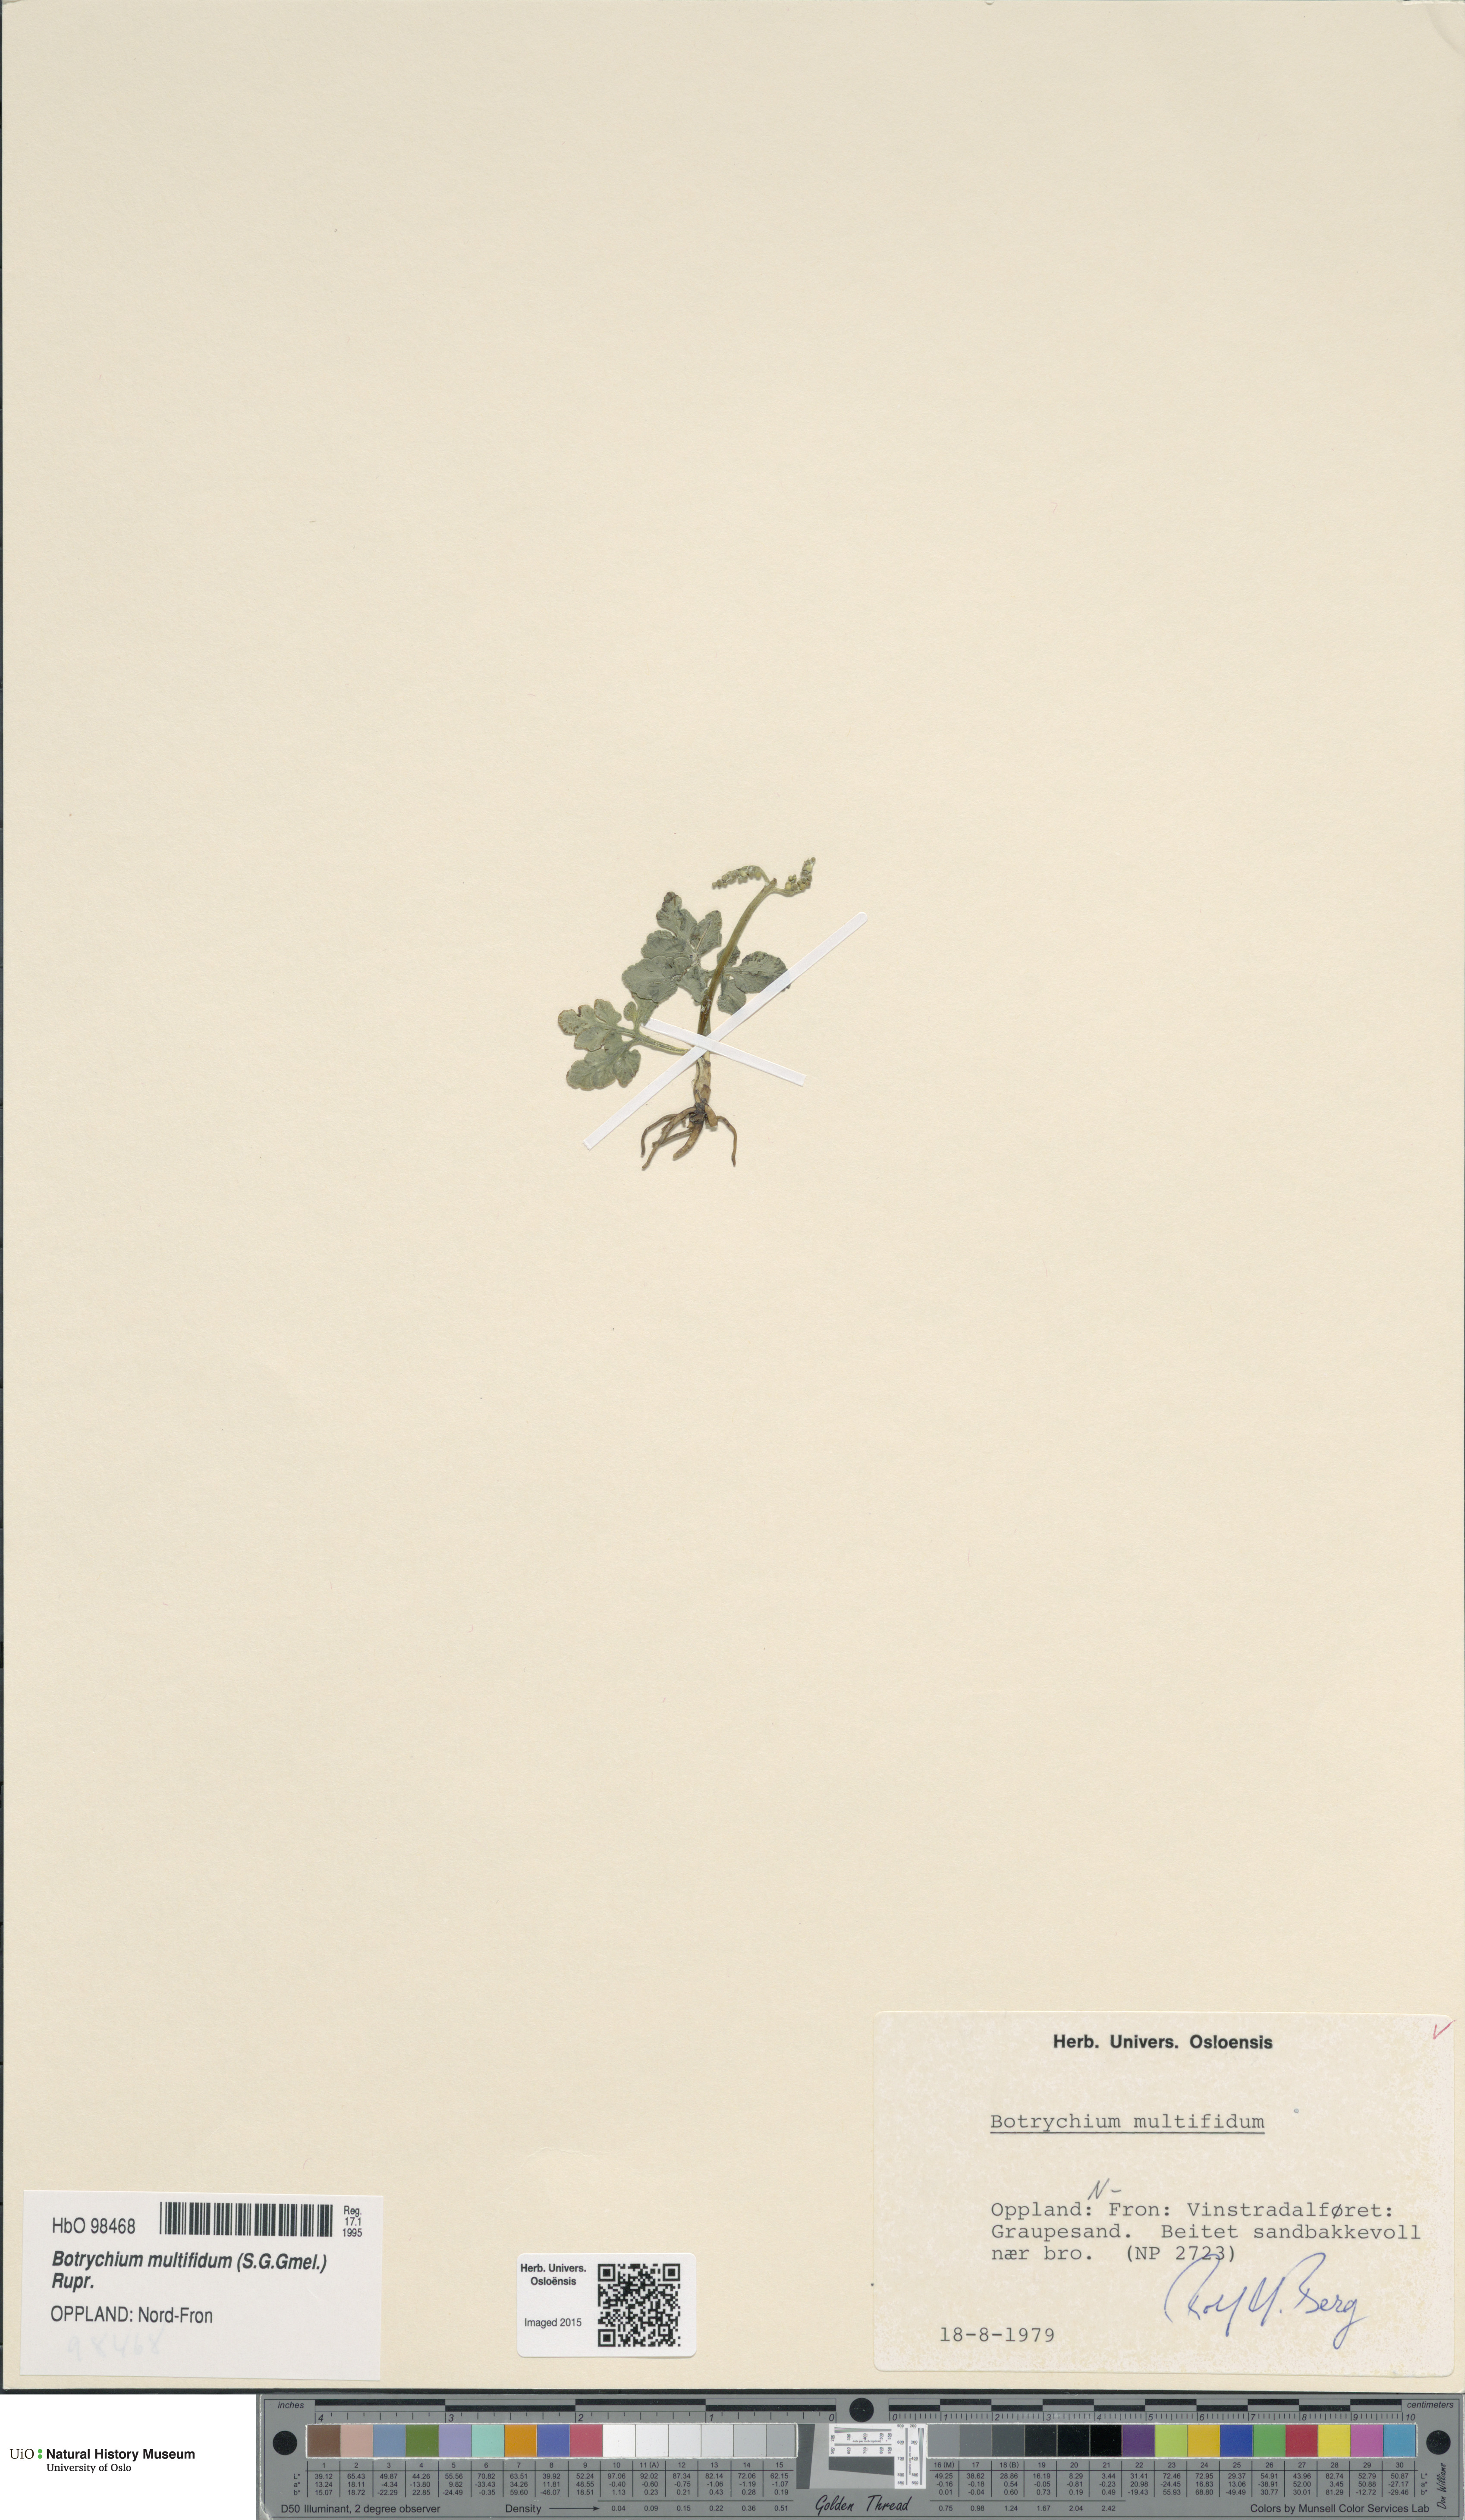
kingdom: Plantae
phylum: Tracheophyta
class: Polypodiopsida
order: Ophioglossales
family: Ophioglossaceae
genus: Sceptridium
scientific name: Sceptridium multifidum
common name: Leathery grape fern
